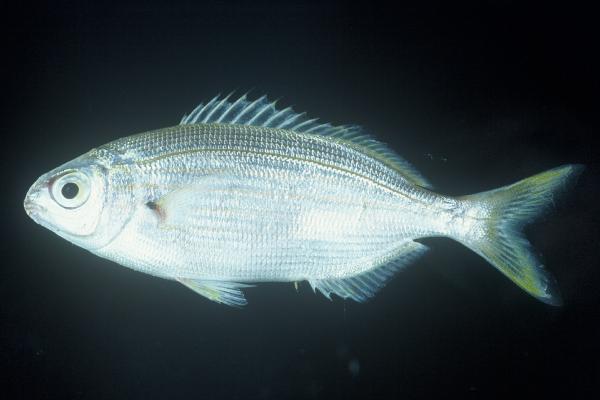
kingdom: Animalia
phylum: Chordata
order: Perciformes
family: Sparidae
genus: Sarpa
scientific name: Sarpa salpa
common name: Salema
